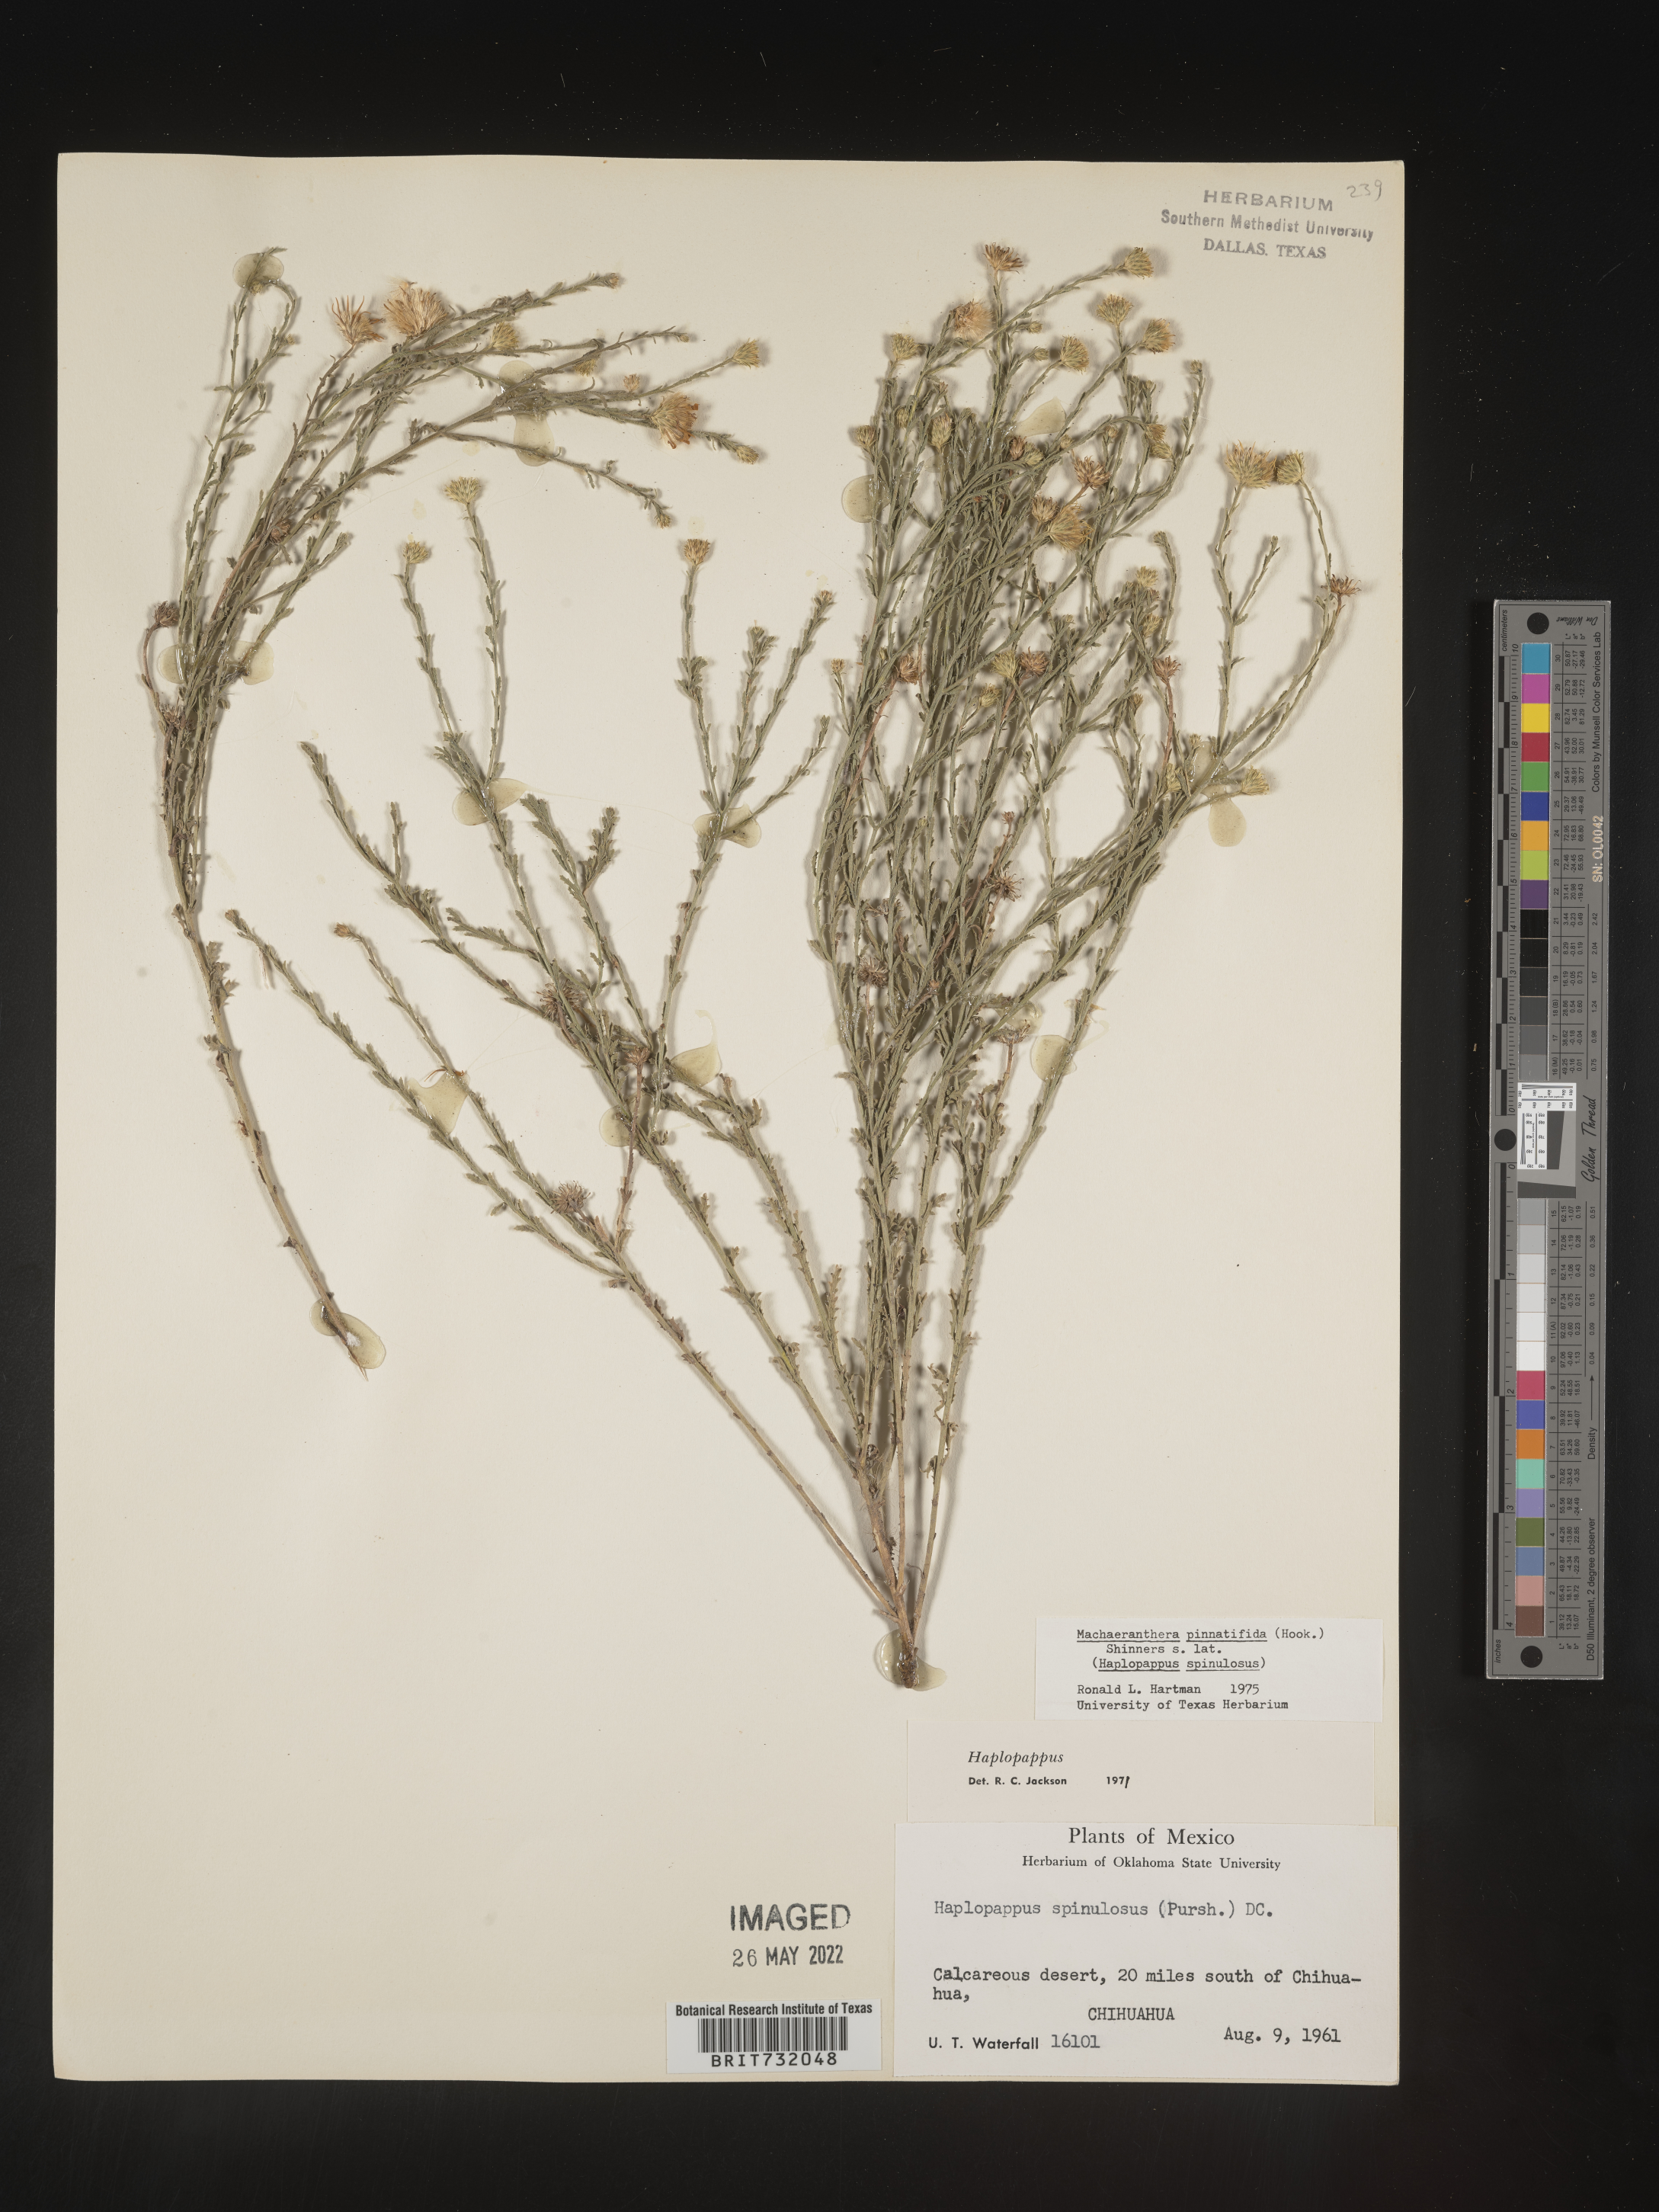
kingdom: Plantae
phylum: Tracheophyta
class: Magnoliopsida
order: Asterales
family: Asteraceae
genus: Xanthisma
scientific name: Xanthisma spinulosum
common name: Spiny goldenweed
